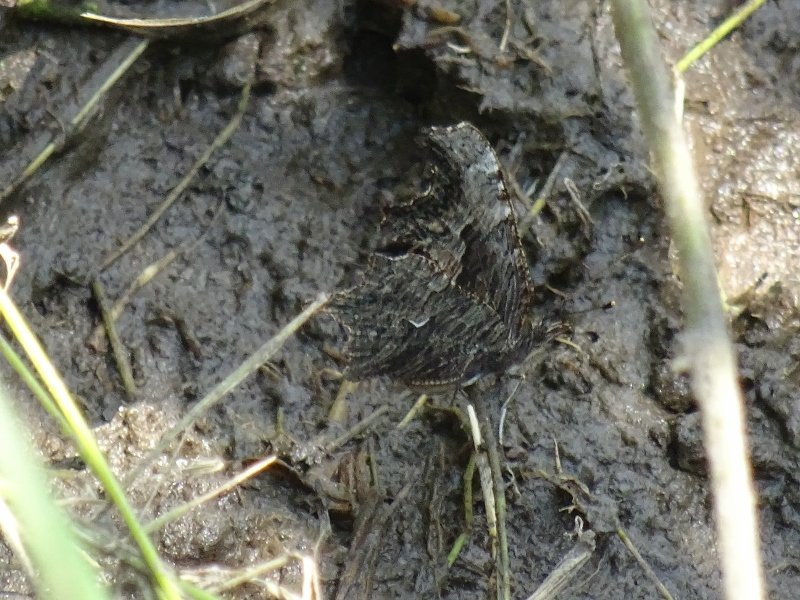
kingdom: Animalia
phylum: Arthropoda
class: Insecta
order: Lepidoptera
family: Nymphalidae
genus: Polygonia
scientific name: Polygonia progne
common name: Gray Comma
